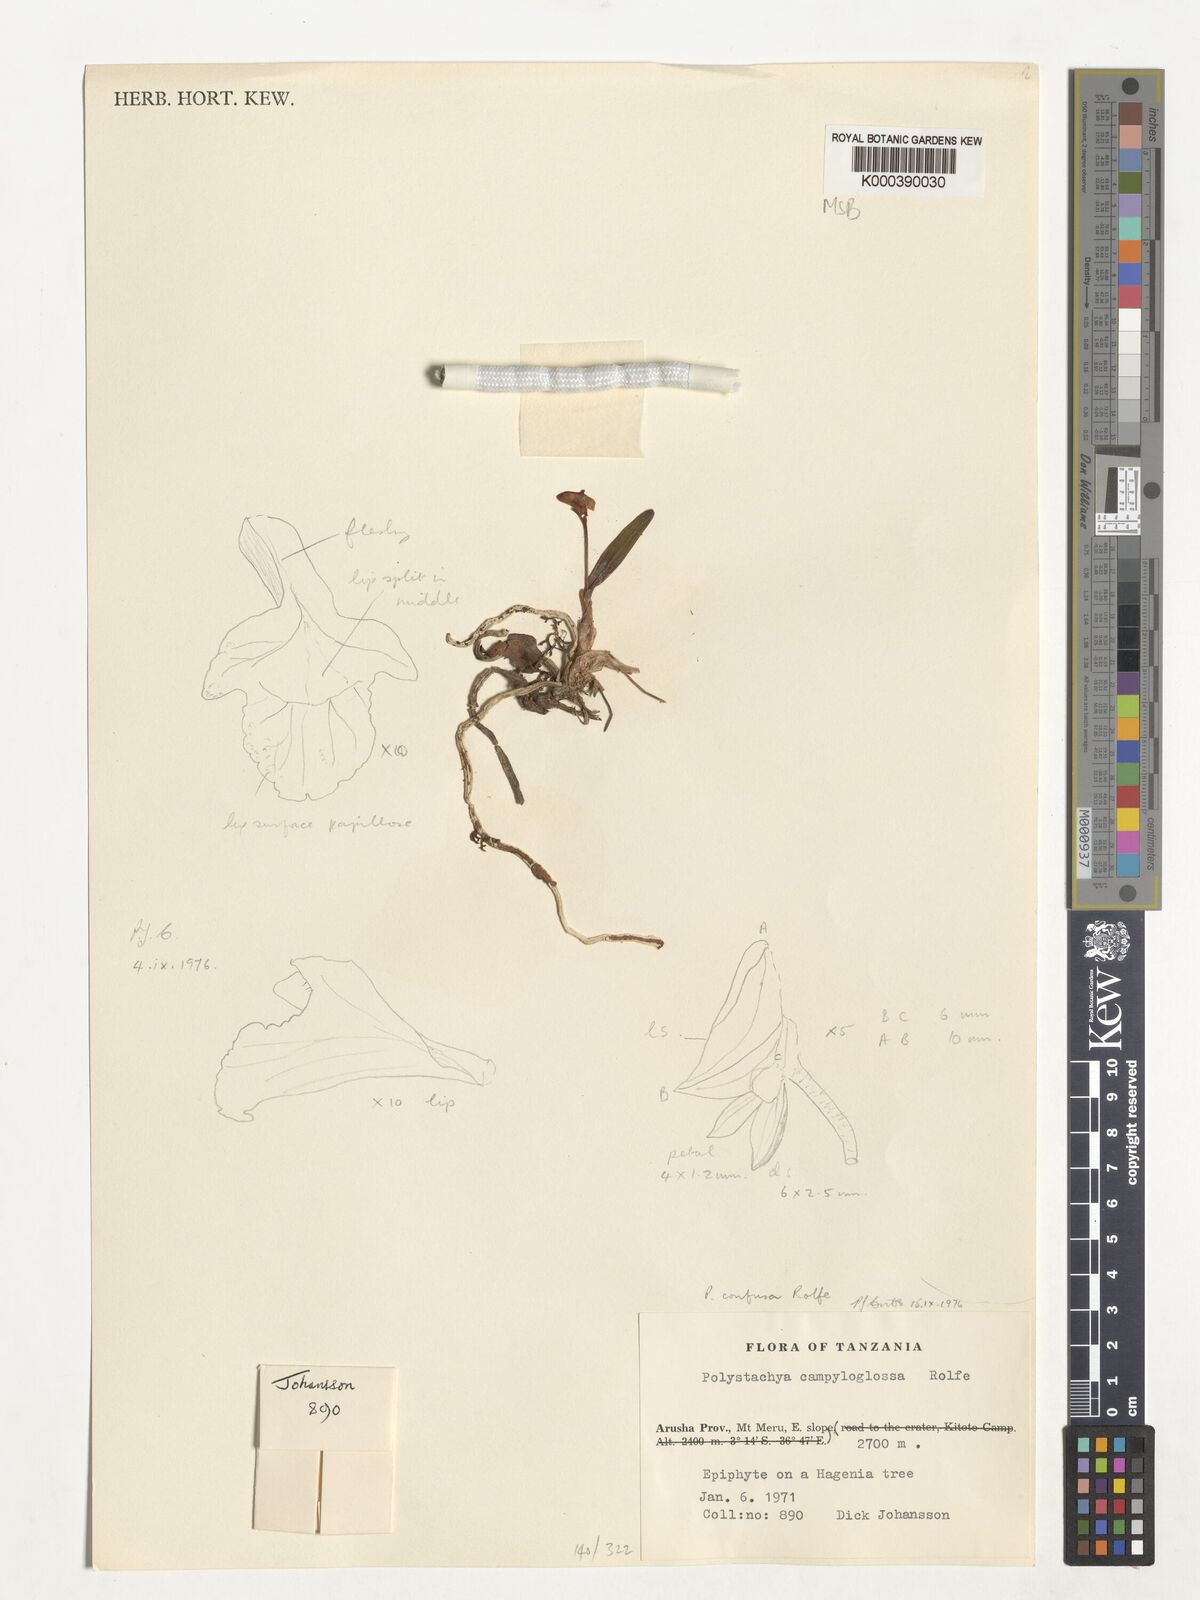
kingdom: Plantae
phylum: Tracheophyta
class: Liliopsida
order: Asparagales
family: Orchidaceae
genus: Polystachya
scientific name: Polystachya confusa
